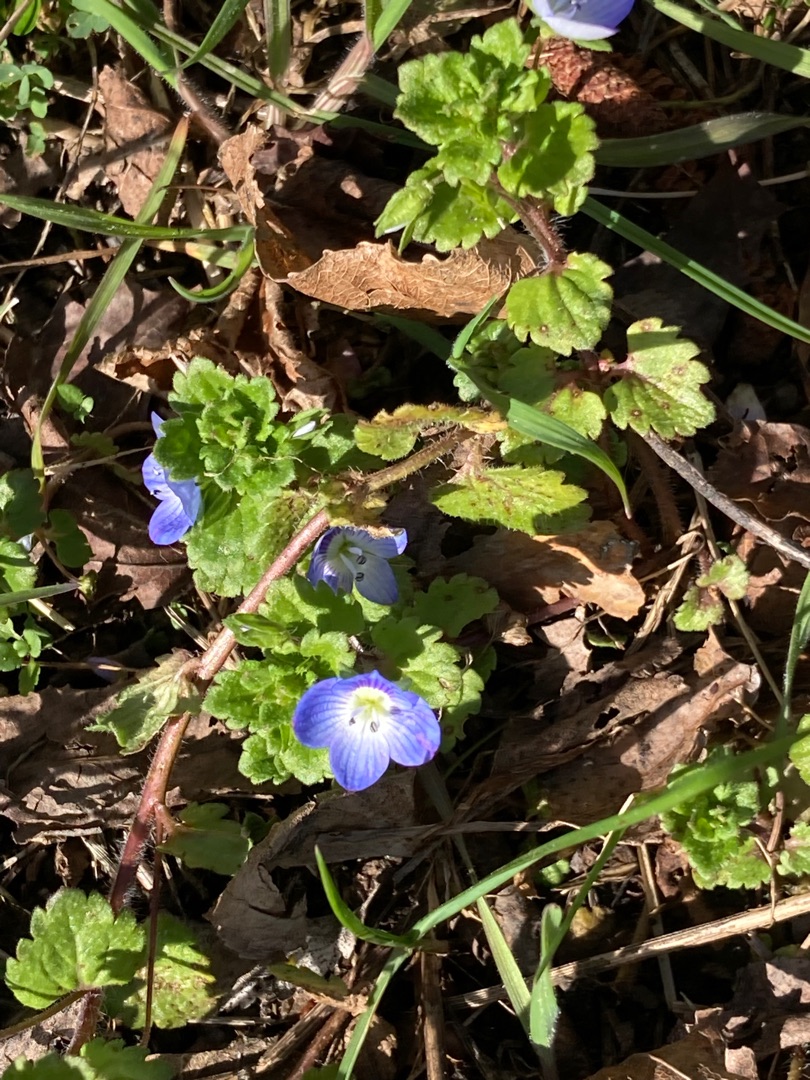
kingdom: Plantae
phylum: Tracheophyta
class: Magnoliopsida
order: Lamiales
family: Plantaginaceae
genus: Veronica
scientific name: Veronica persica
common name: Storkronet ærenpris
